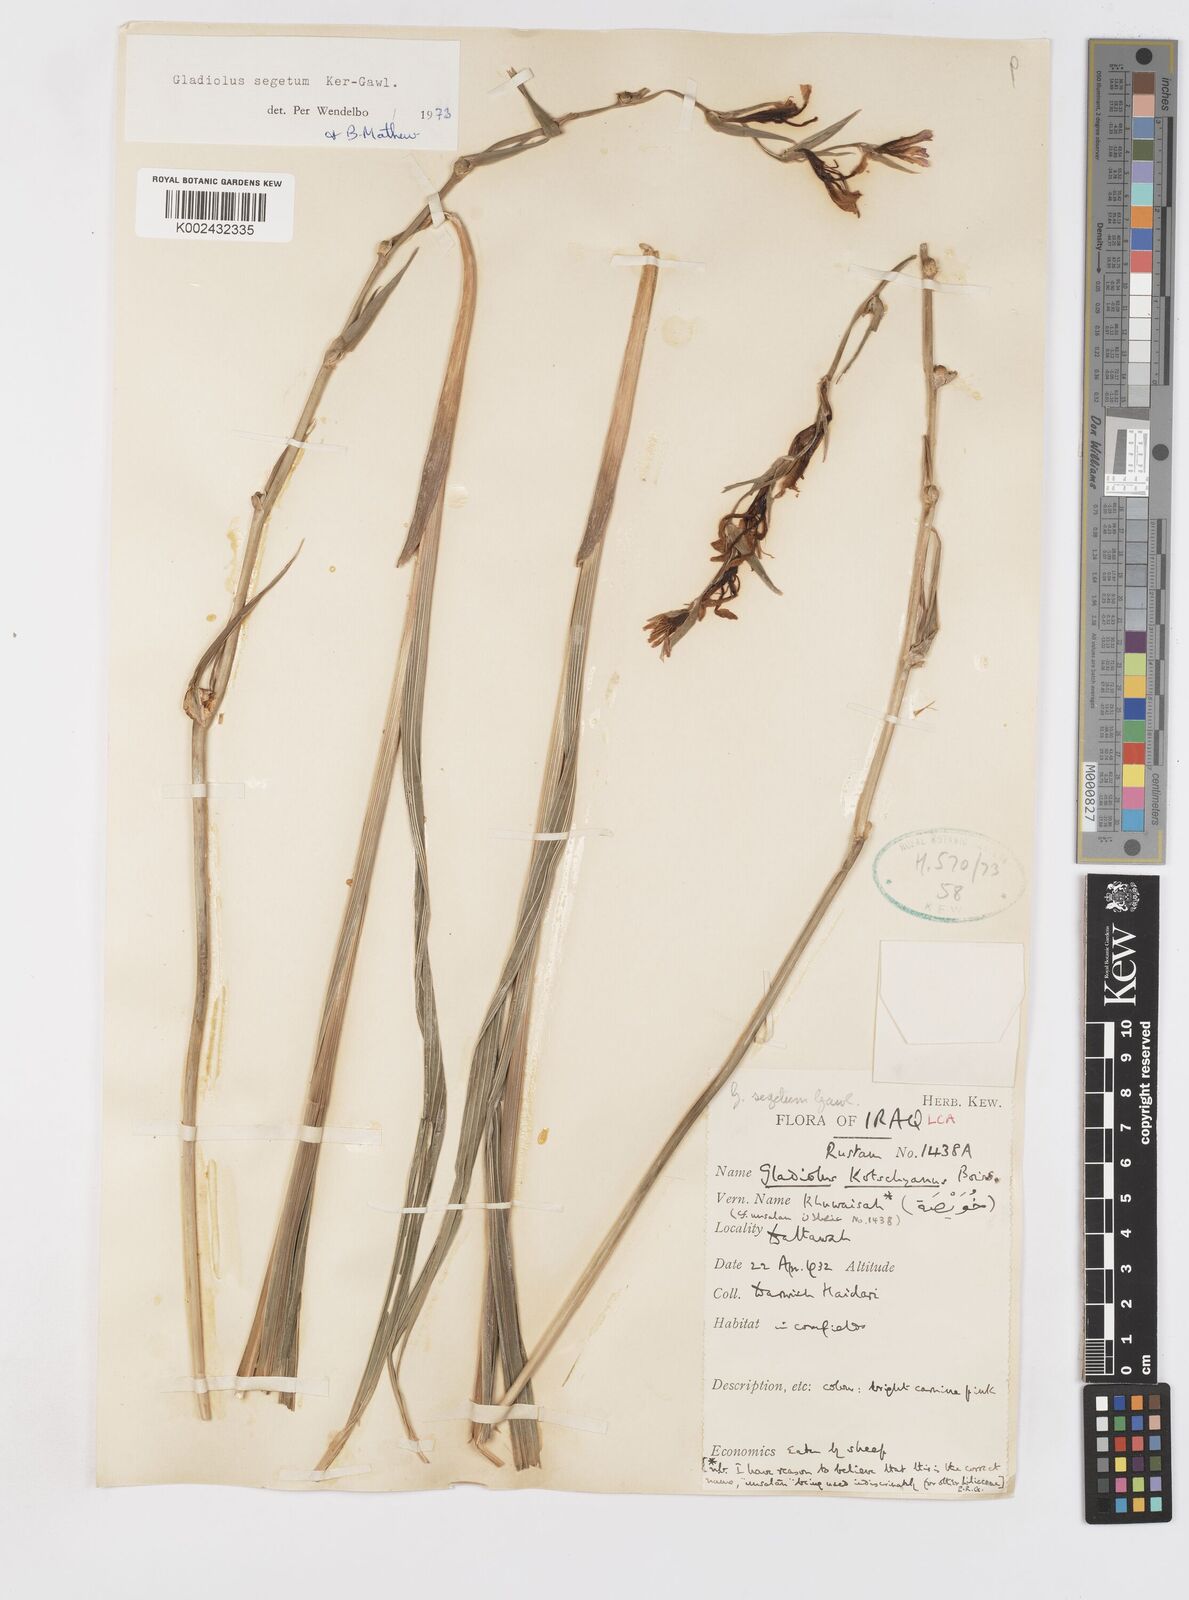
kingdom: Plantae
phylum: Tracheophyta
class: Liliopsida
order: Asparagales
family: Iridaceae
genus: Gladiolus
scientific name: Gladiolus italicus
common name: Field gladiolus
